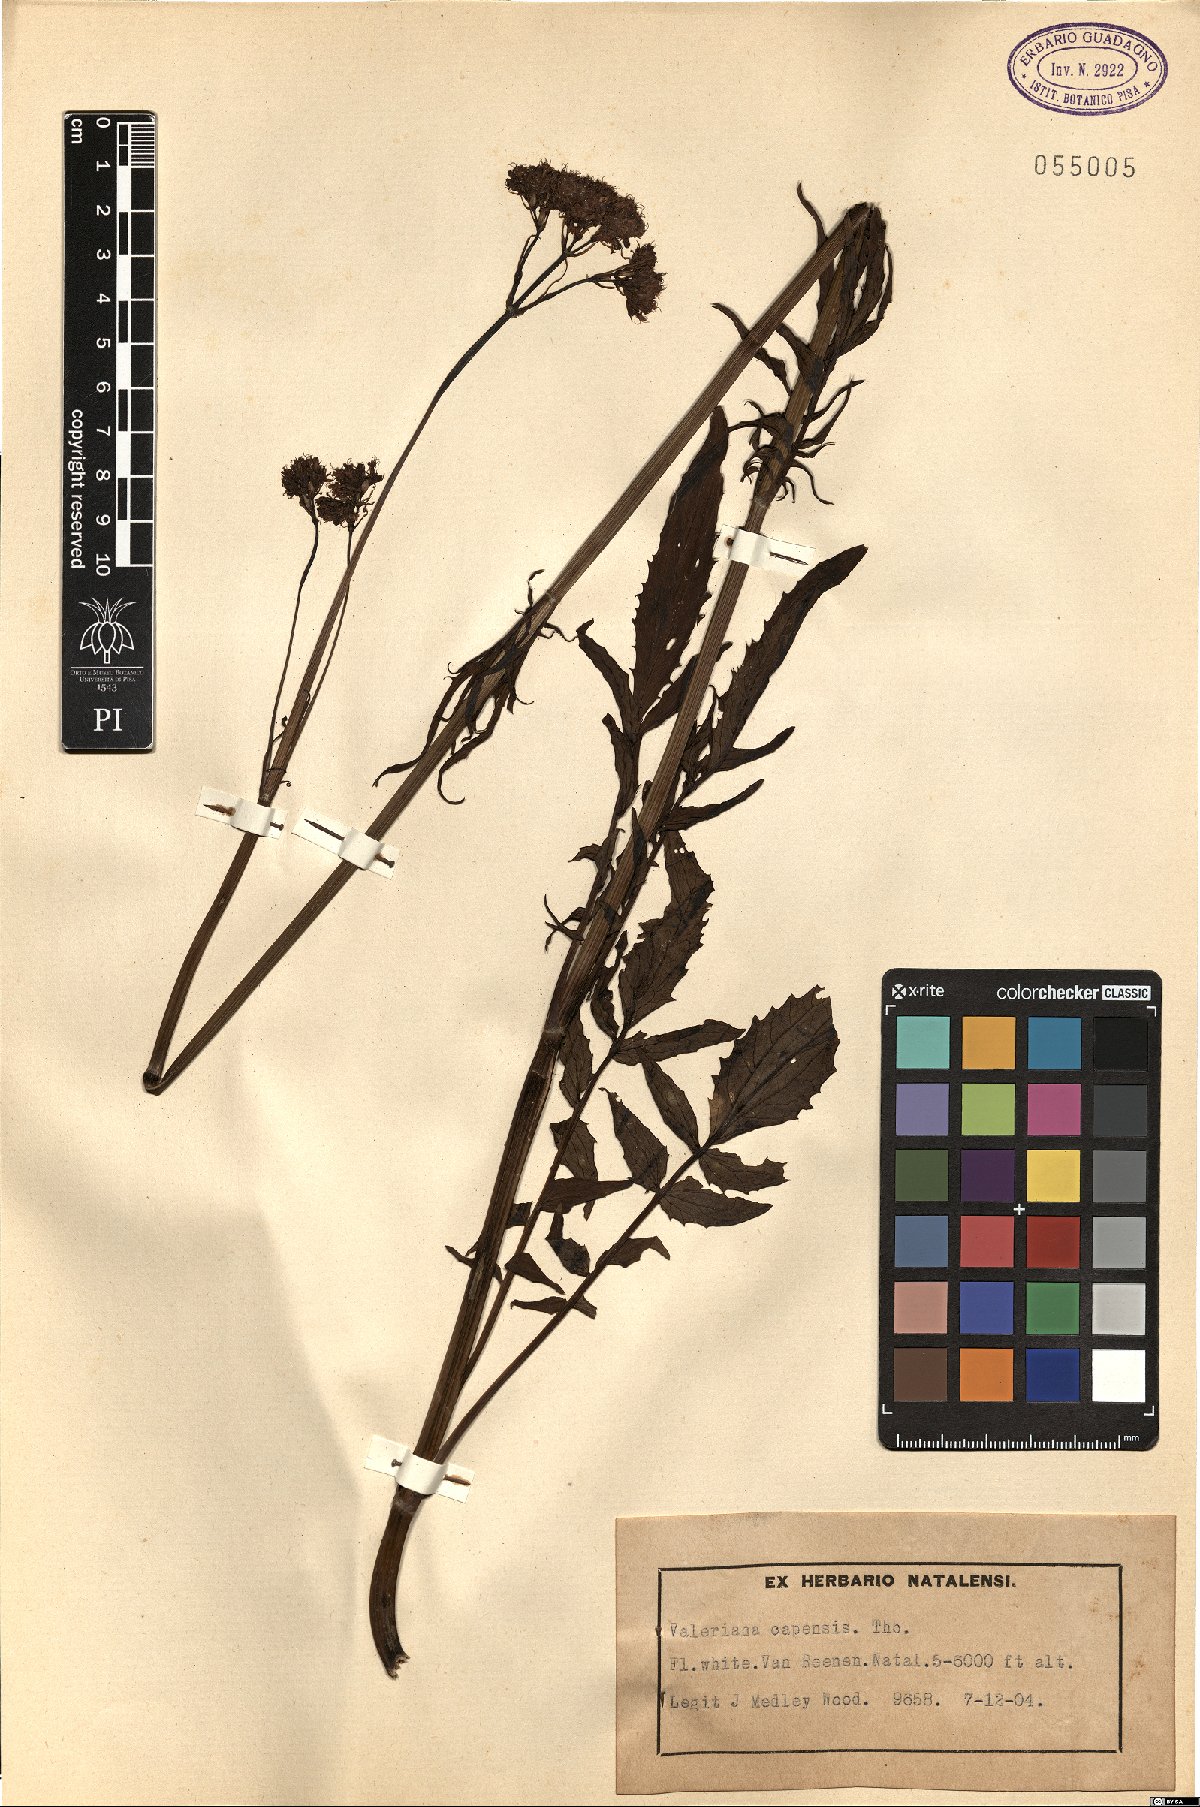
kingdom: Plantae
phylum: Tracheophyta
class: Magnoliopsida
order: Dipsacales
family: Caprifoliaceae
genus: Valeriana
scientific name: Valeriana capensis
